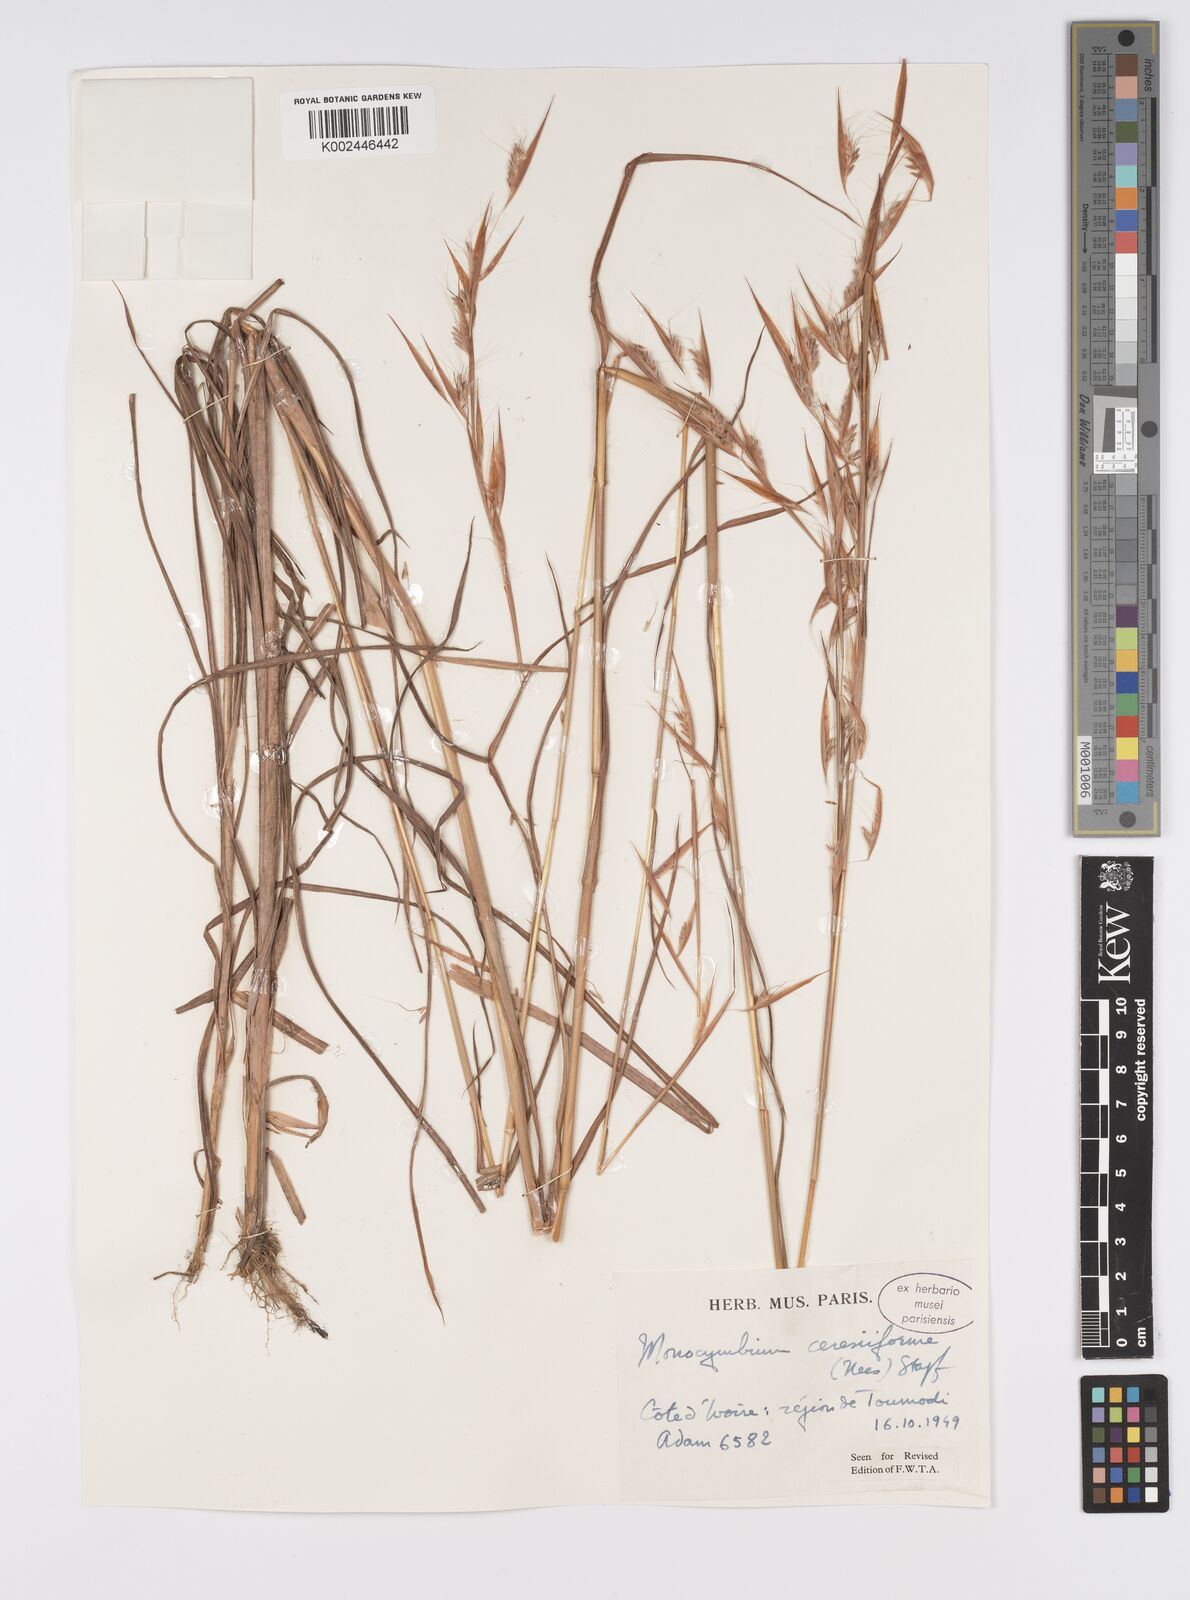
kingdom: Plantae
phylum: Tracheophyta
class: Liliopsida
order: Poales
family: Poaceae
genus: Monocymbium
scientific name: Monocymbium ceresiiforme
